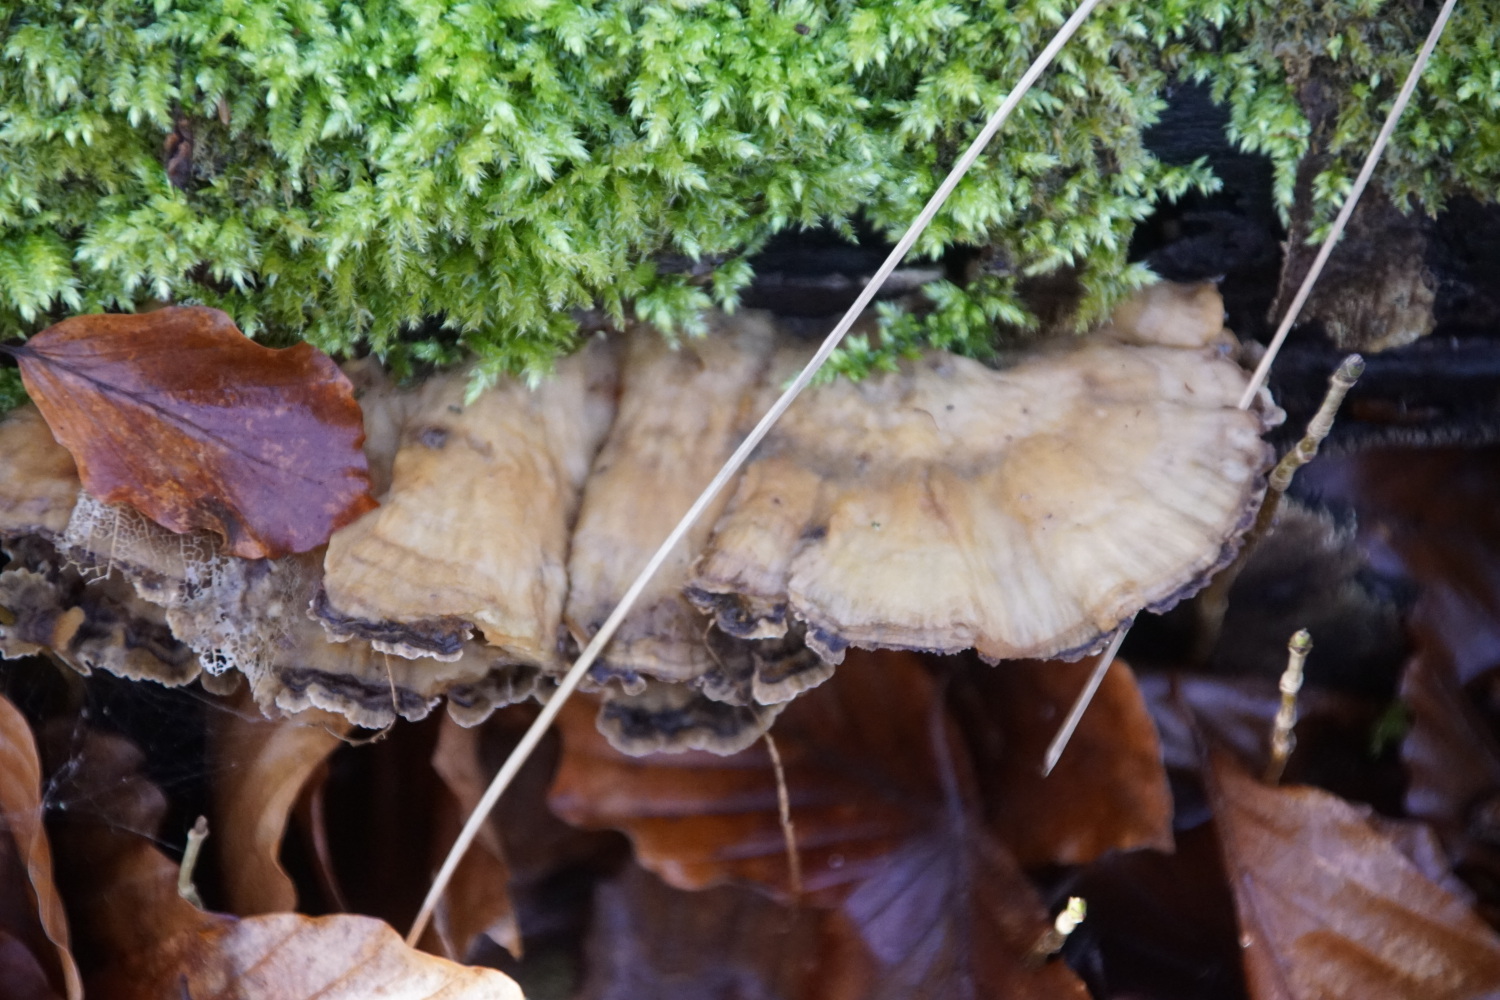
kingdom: Fungi
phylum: Basidiomycota
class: Agaricomycetes
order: Polyporales
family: Phanerochaetaceae
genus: Bjerkandera
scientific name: Bjerkandera adusta
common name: sveden sodporesvamp
